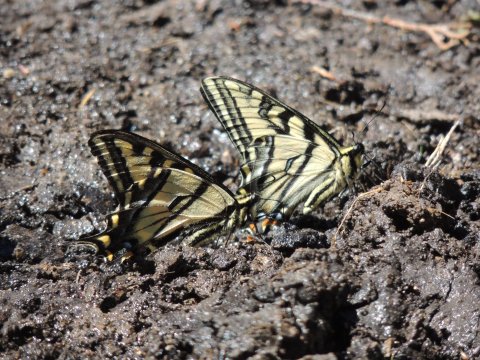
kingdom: Animalia
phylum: Arthropoda
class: Insecta
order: Lepidoptera
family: Papilionidae
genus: Pterourus
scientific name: Pterourus rutulus
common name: Western Tiger Swallowtail
